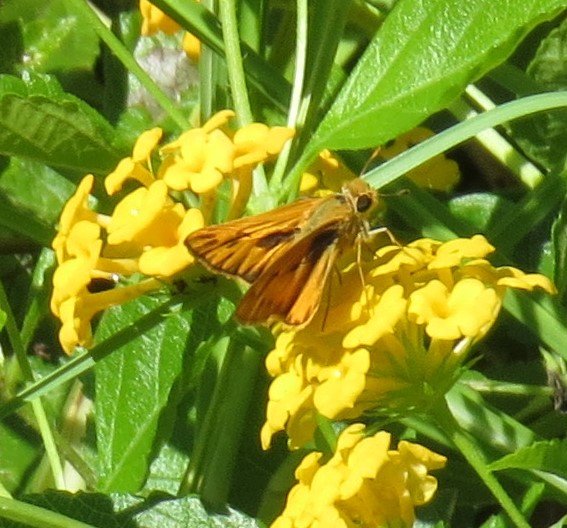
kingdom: Animalia
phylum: Arthropoda
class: Insecta
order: Lepidoptera
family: Hesperiidae
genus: Hylephila
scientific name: Hylephila phyleus
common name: Fiery Skipper
